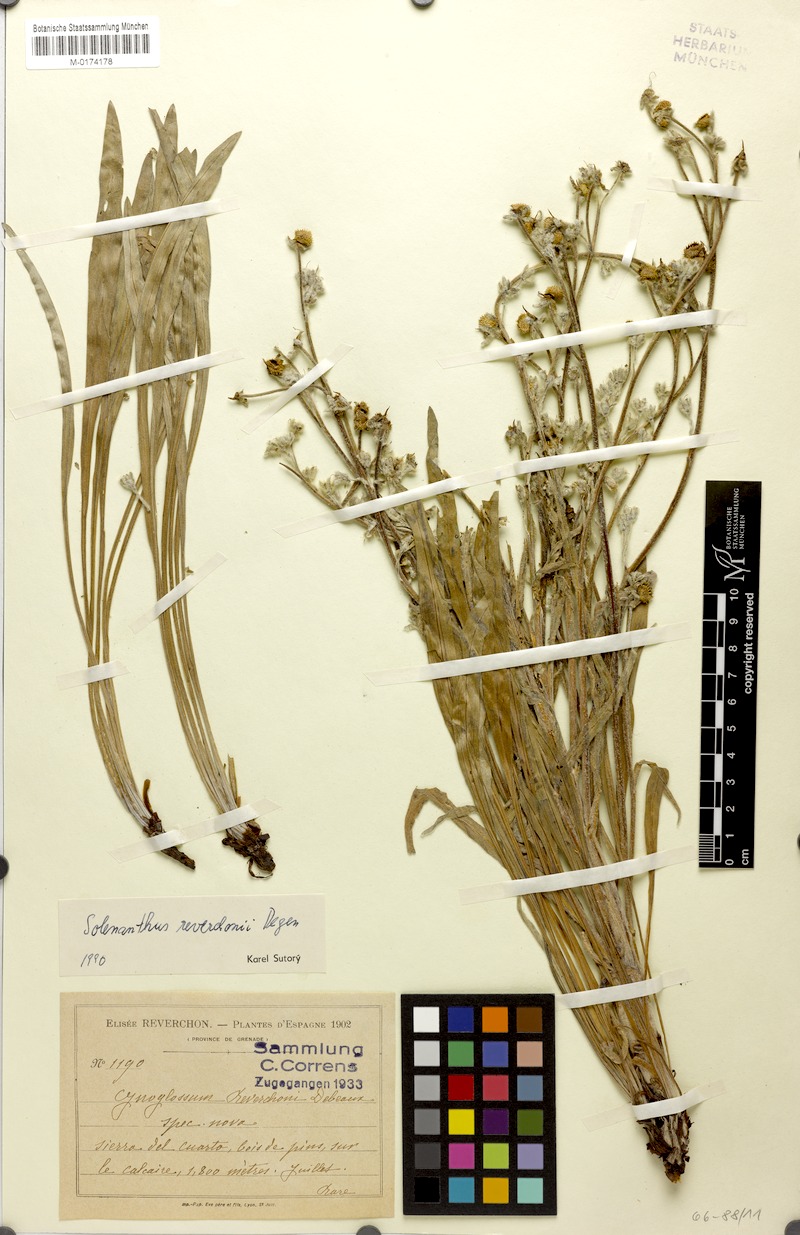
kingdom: Plantae
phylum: Tracheophyta
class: Magnoliopsida
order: Boraginales
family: Boraginaceae
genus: Solenanthus
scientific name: Solenanthus reverchonii
